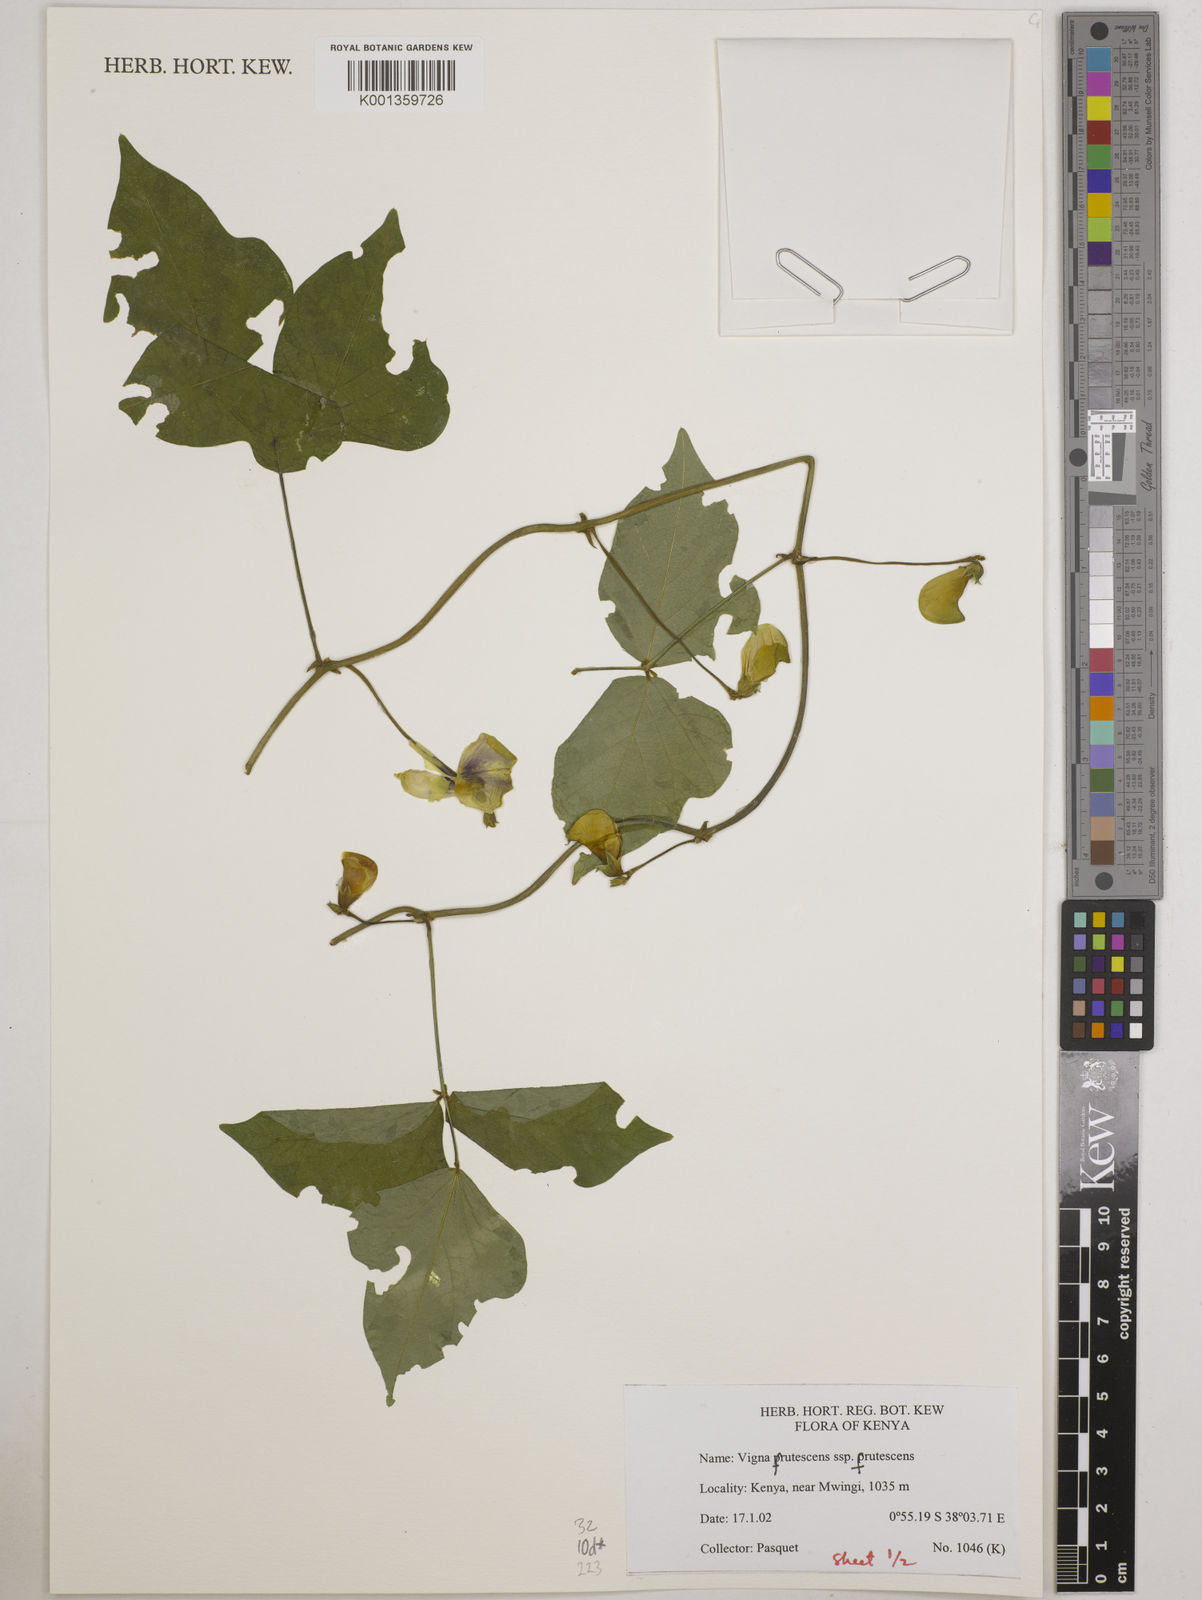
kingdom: Plantae
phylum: Tracheophyta
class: Magnoliopsida
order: Fabales
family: Fabaceae
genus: Vigna
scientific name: Vigna frutescens
